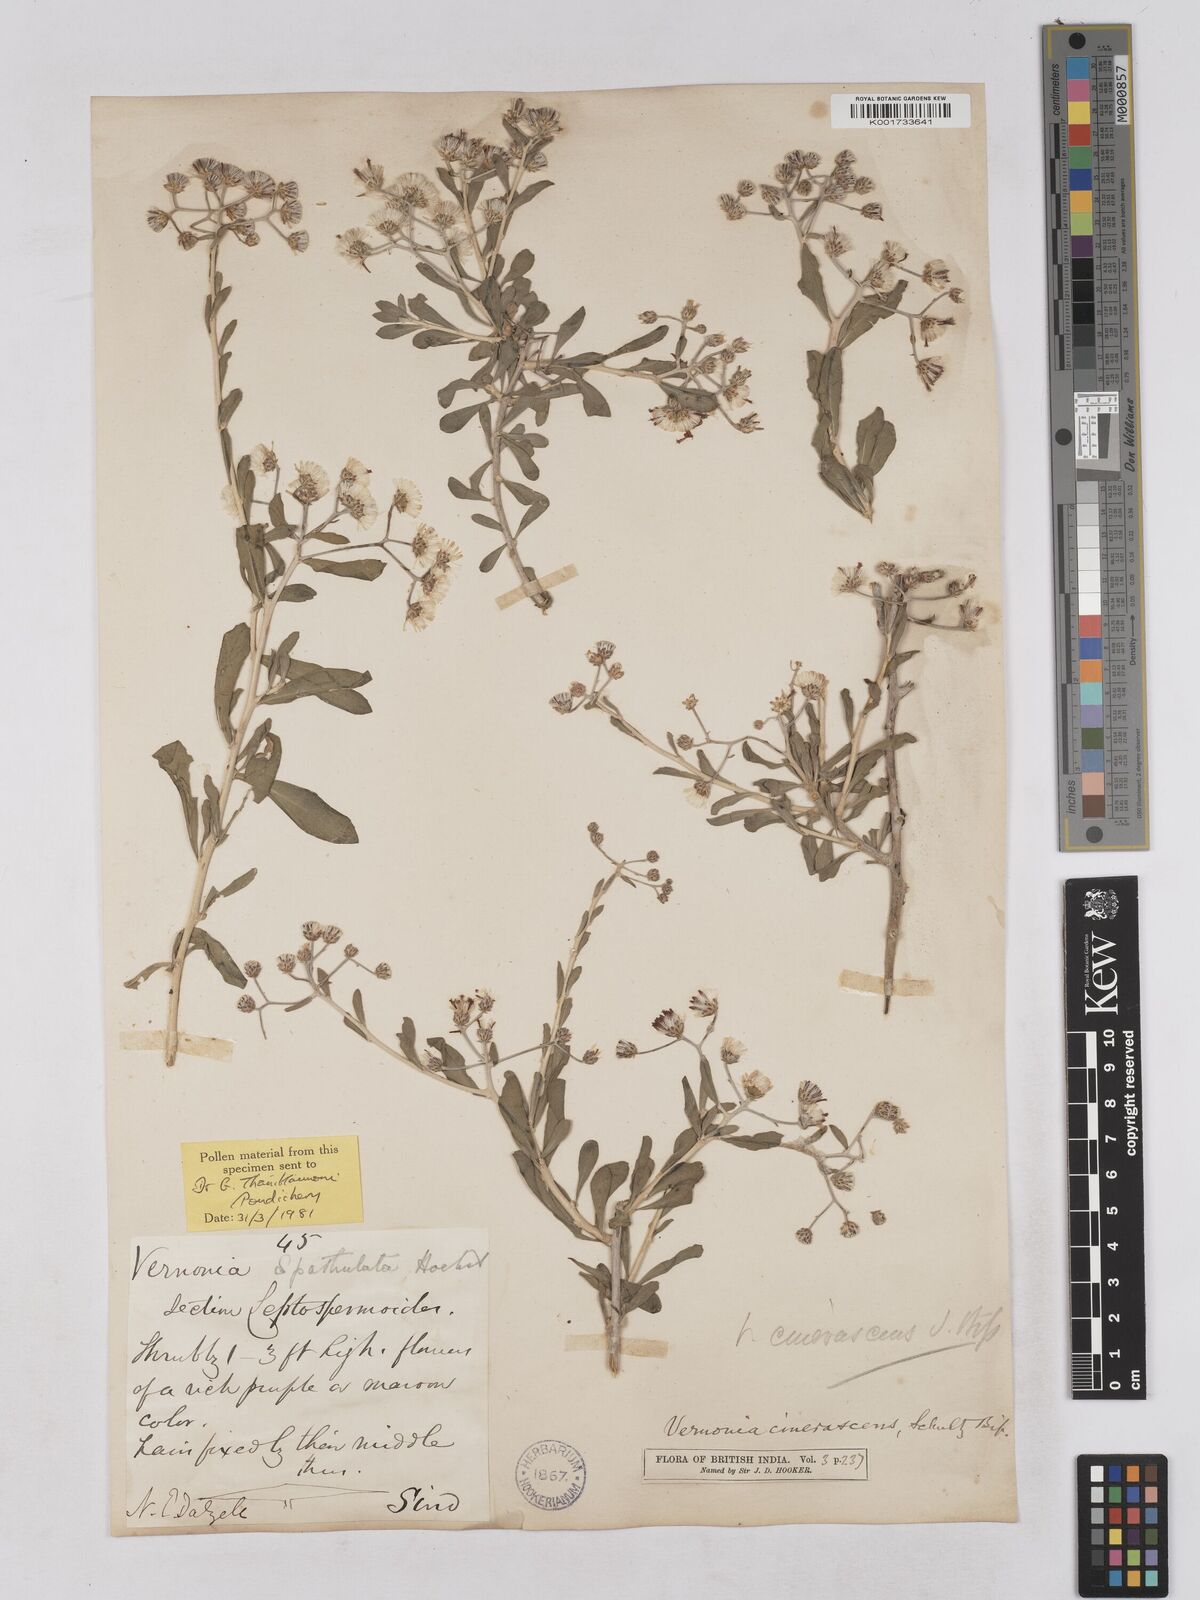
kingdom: Plantae
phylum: Tracheophyta
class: Magnoliopsida
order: Asterales
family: Asteraceae
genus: Orbivestus
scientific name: Orbivestus cinerascens
